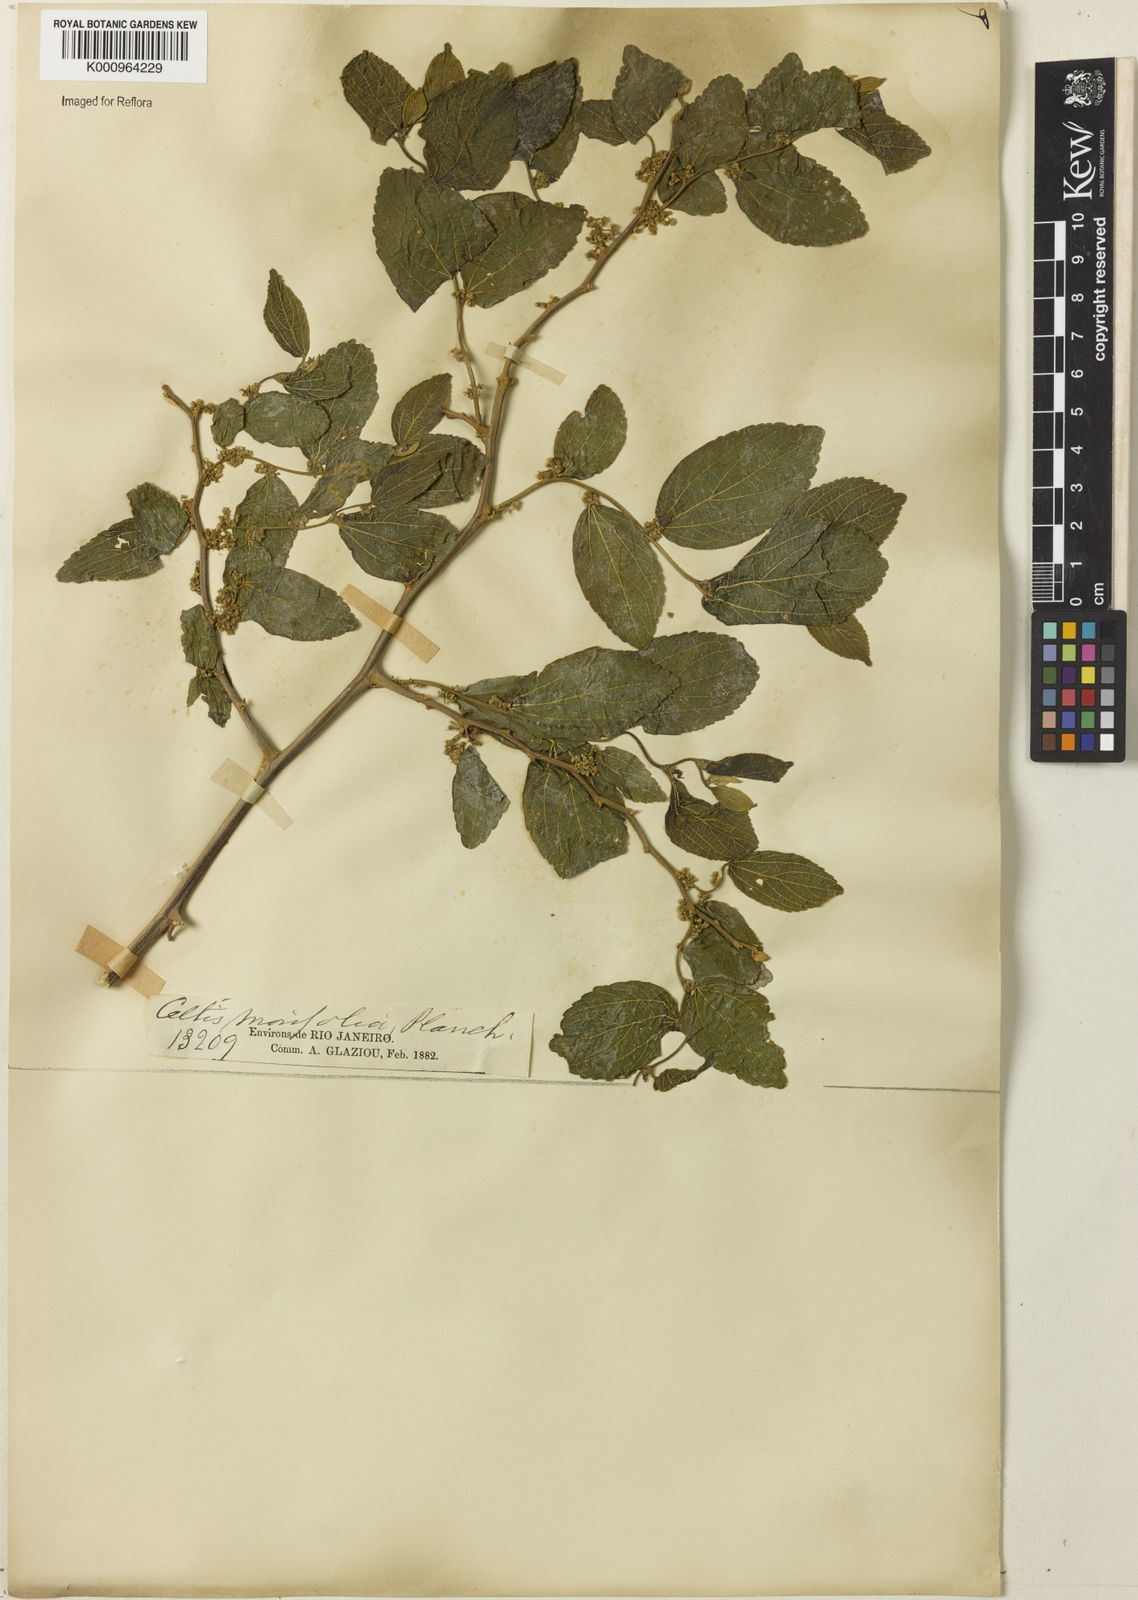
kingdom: Plantae
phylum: Tracheophyta
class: Magnoliopsida
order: Rosales
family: Cannabaceae
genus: Celtis
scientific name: Celtis iguanaea
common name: Iguana hackberry
